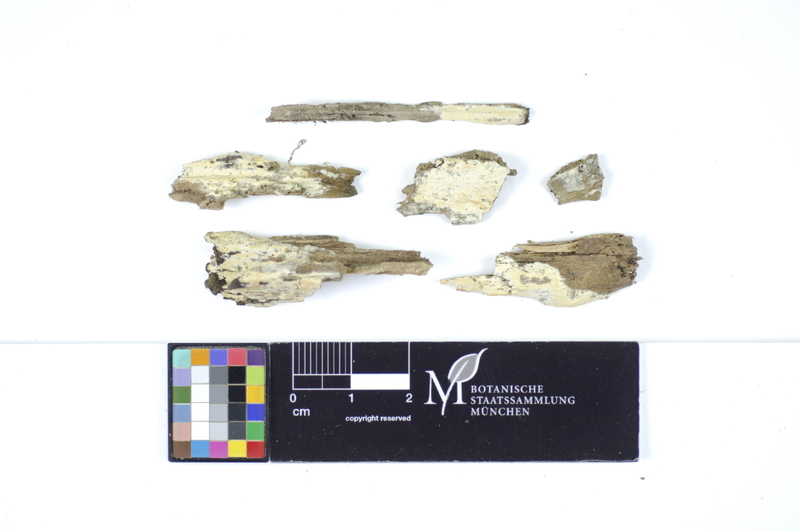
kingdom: Fungi
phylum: Basidiomycota
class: Agaricomycetes
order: Polyporales
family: Meruliaceae
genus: Conohypha
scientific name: Conohypha terricola
